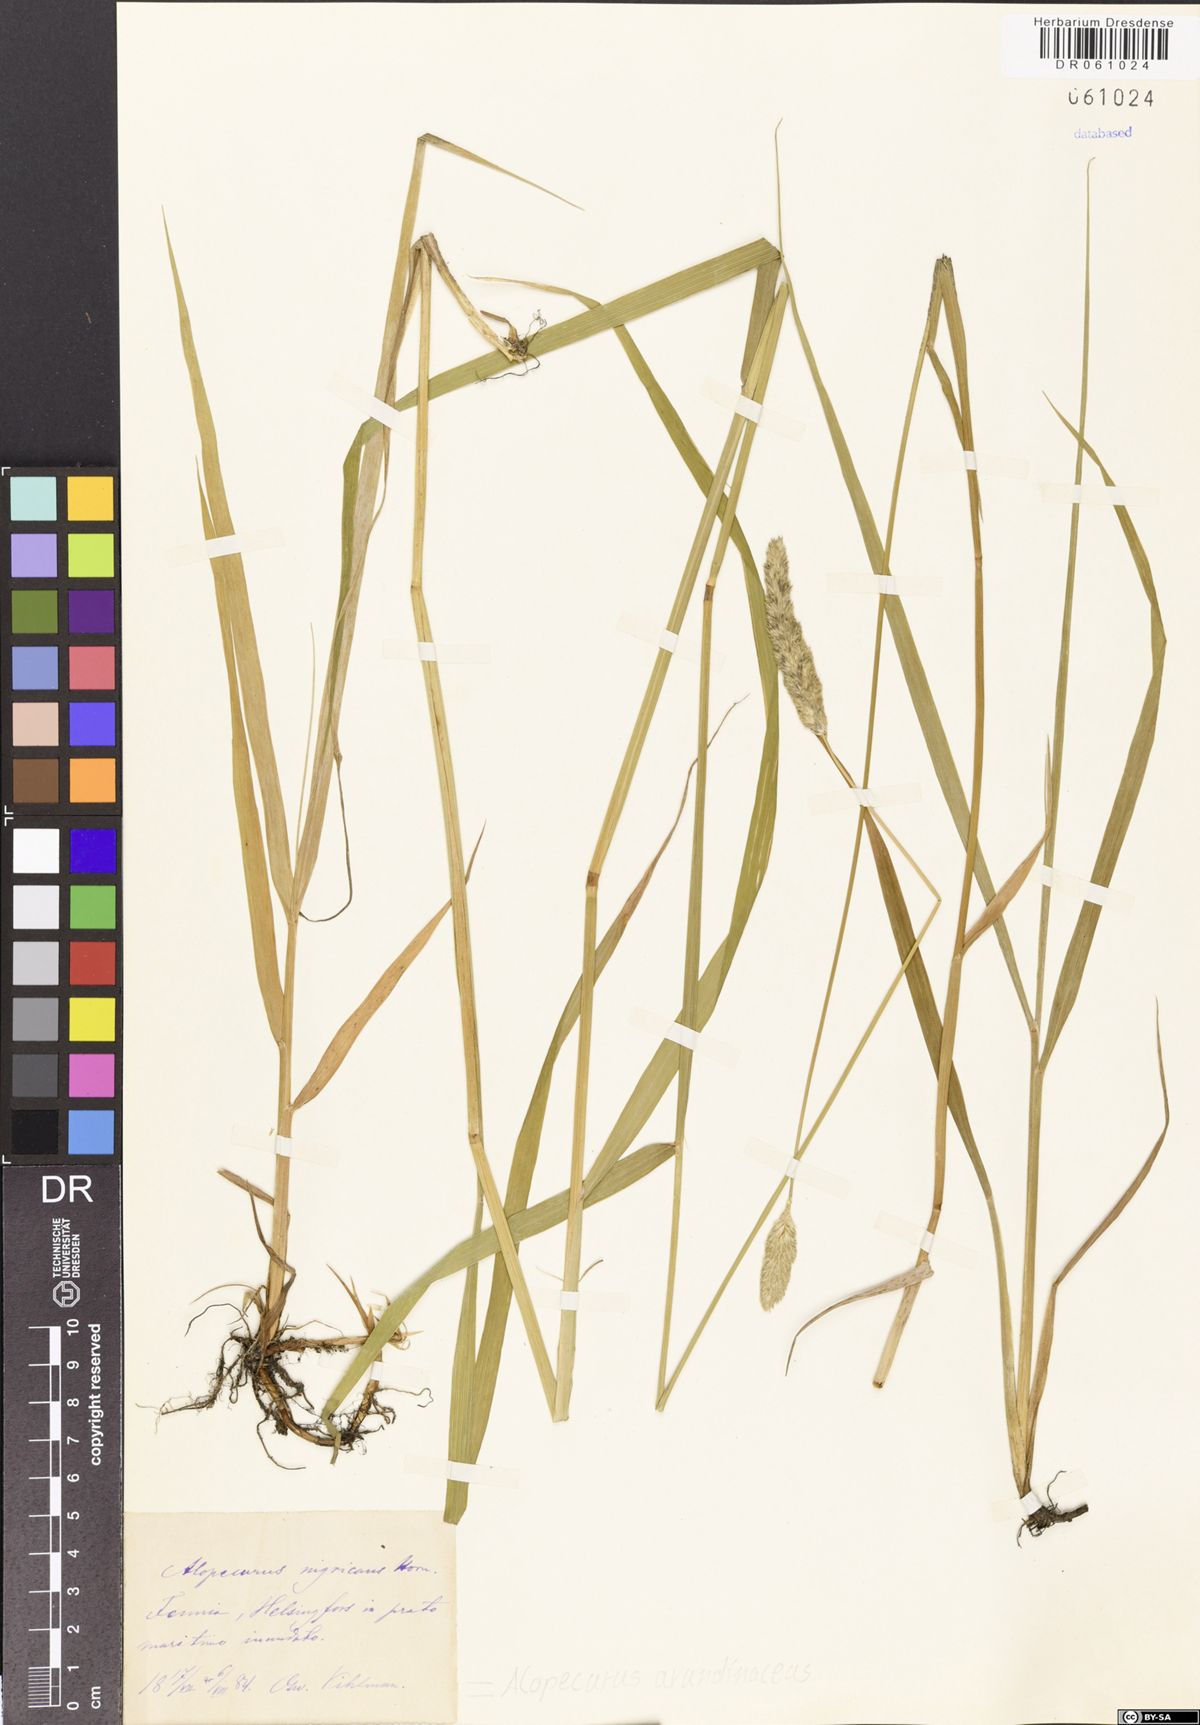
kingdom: Plantae
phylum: Tracheophyta
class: Liliopsida
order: Poales
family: Poaceae
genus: Alopecurus
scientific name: Alopecurus arundinaceus
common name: Creeping meadow foxtail
